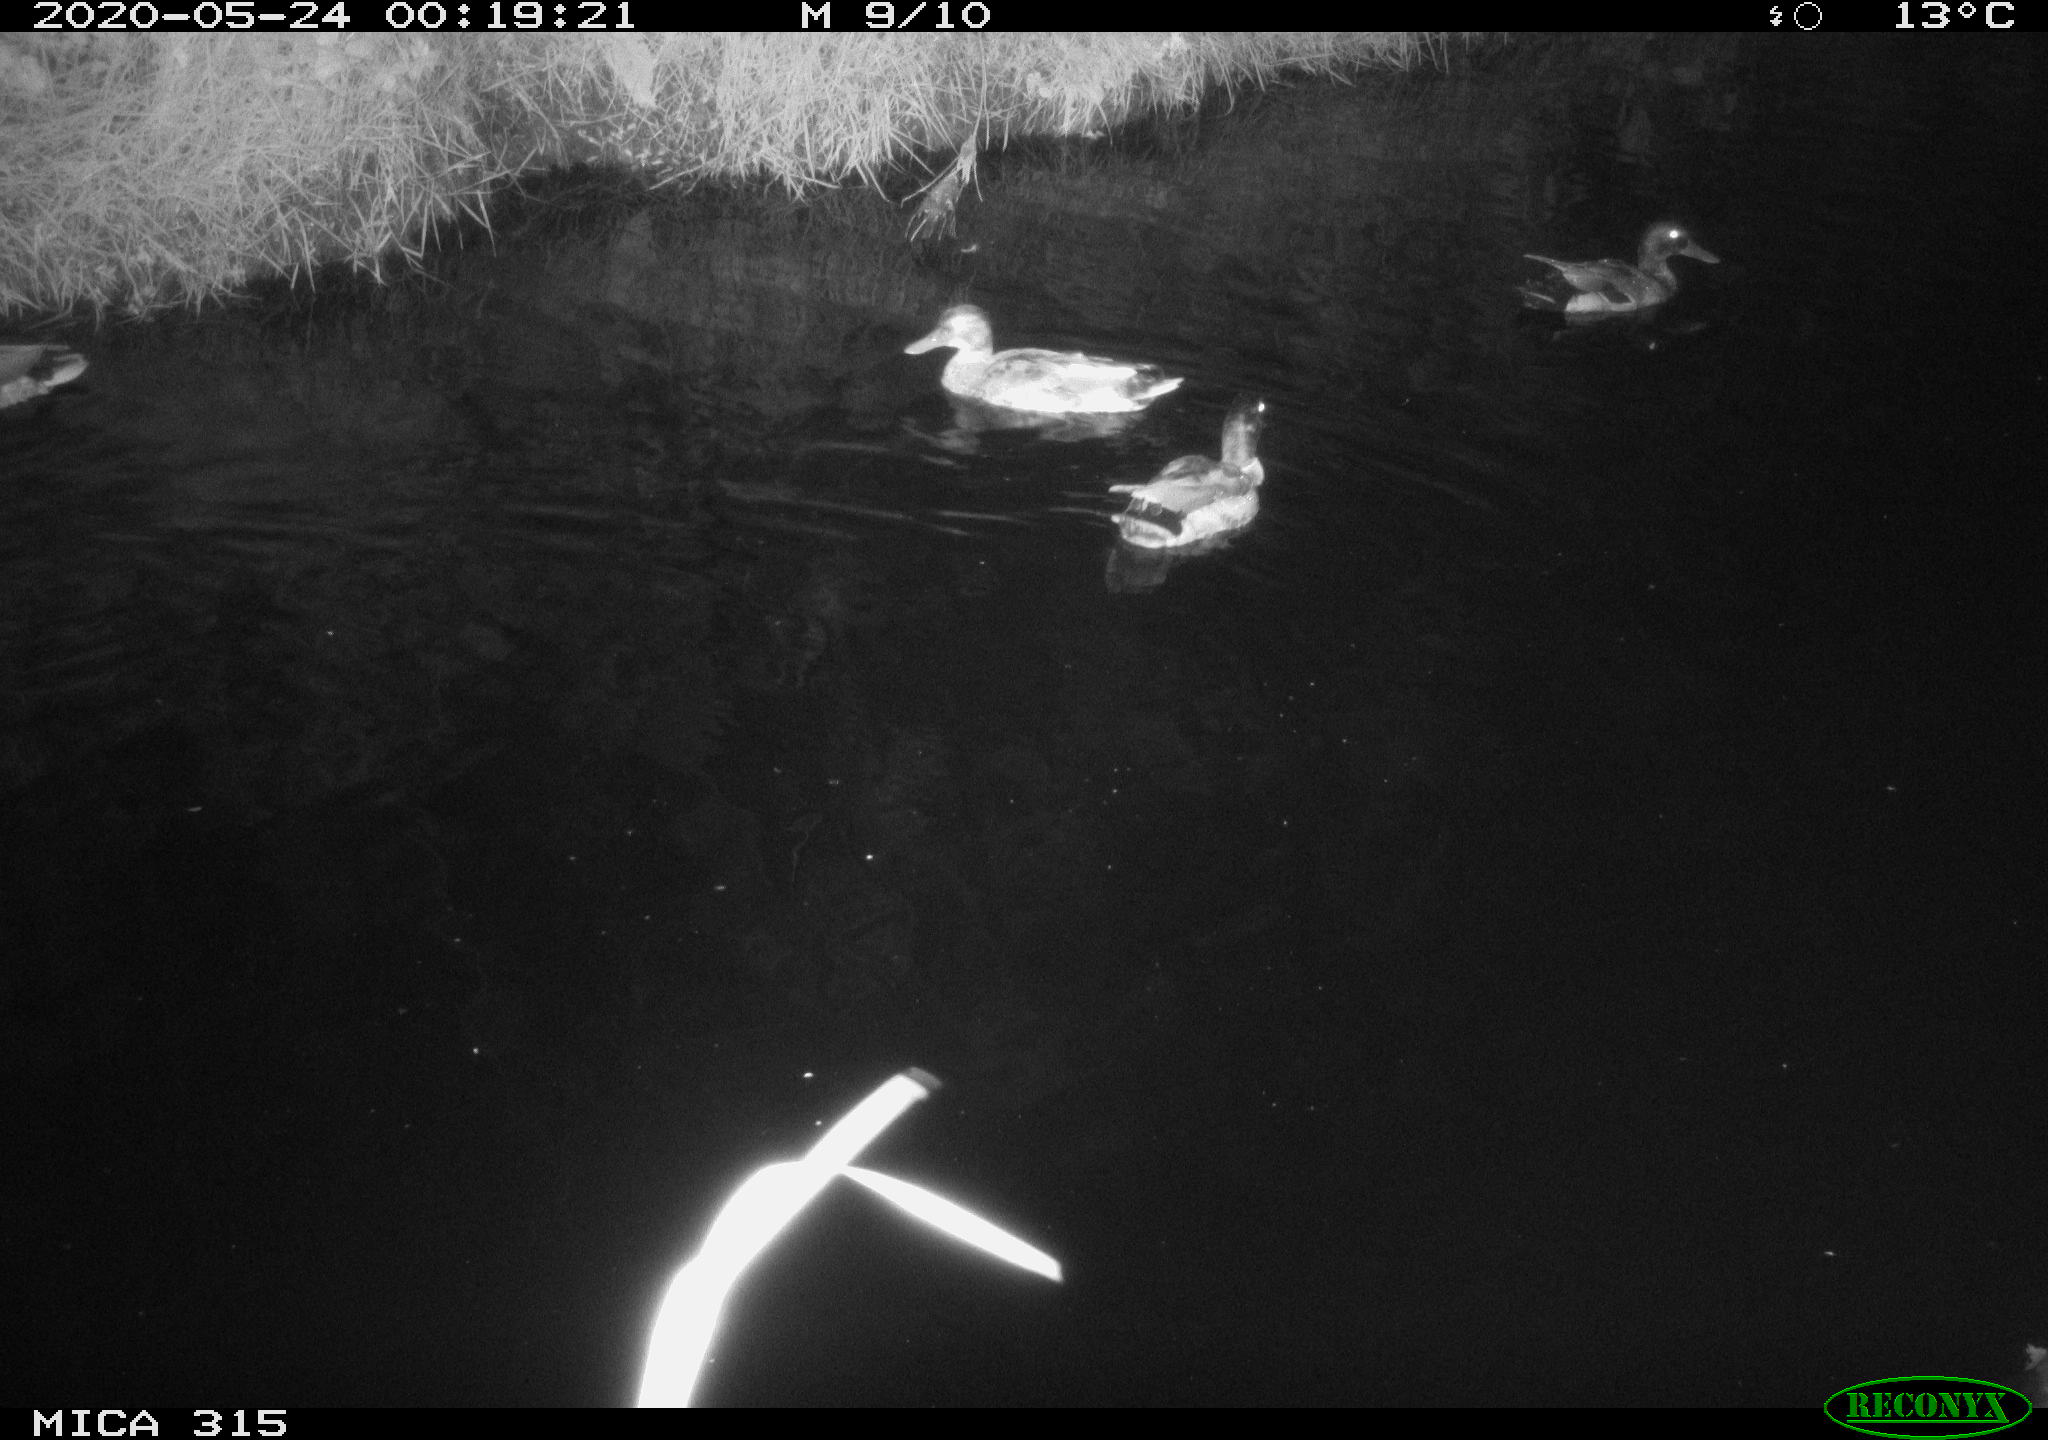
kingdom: Animalia
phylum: Chordata
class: Aves
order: Anseriformes
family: Anatidae
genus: Anas
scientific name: Anas platyrhynchos
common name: Mallard
